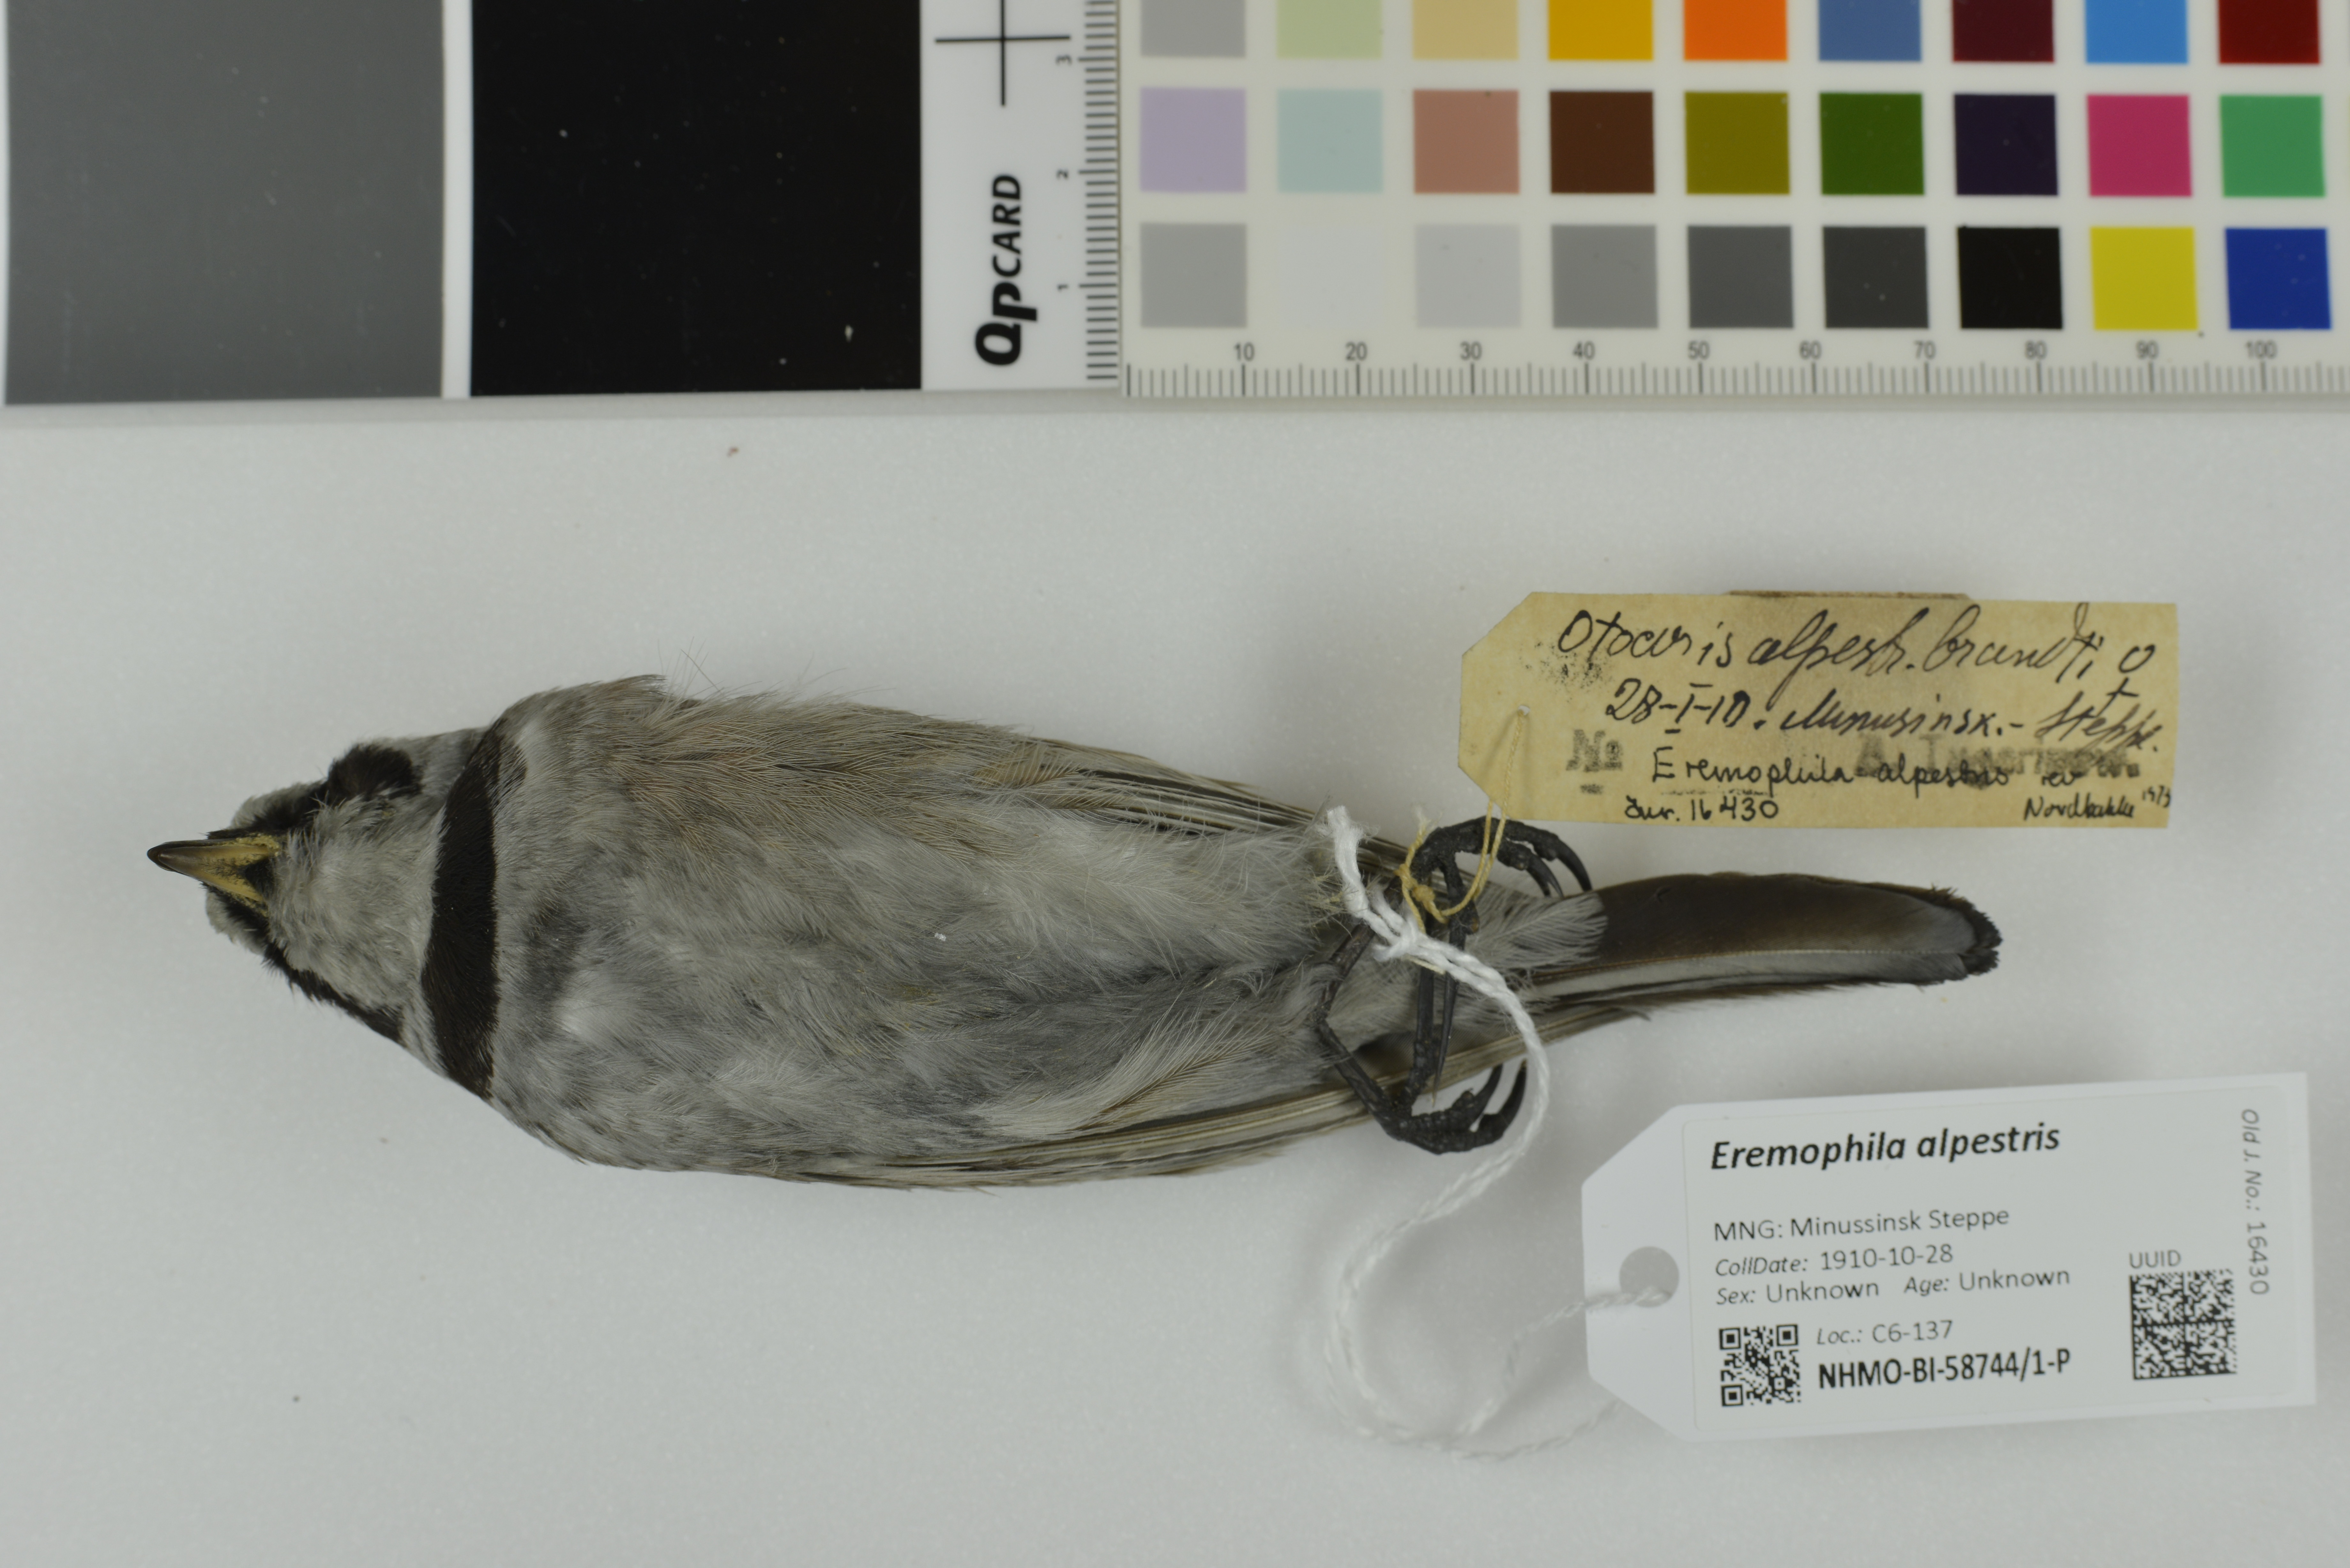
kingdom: Animalia
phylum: Chordata
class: Aves
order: Passeriformes
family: Alaudidae
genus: Eremophila
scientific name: Eremophila alpestris
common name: Horned lark
